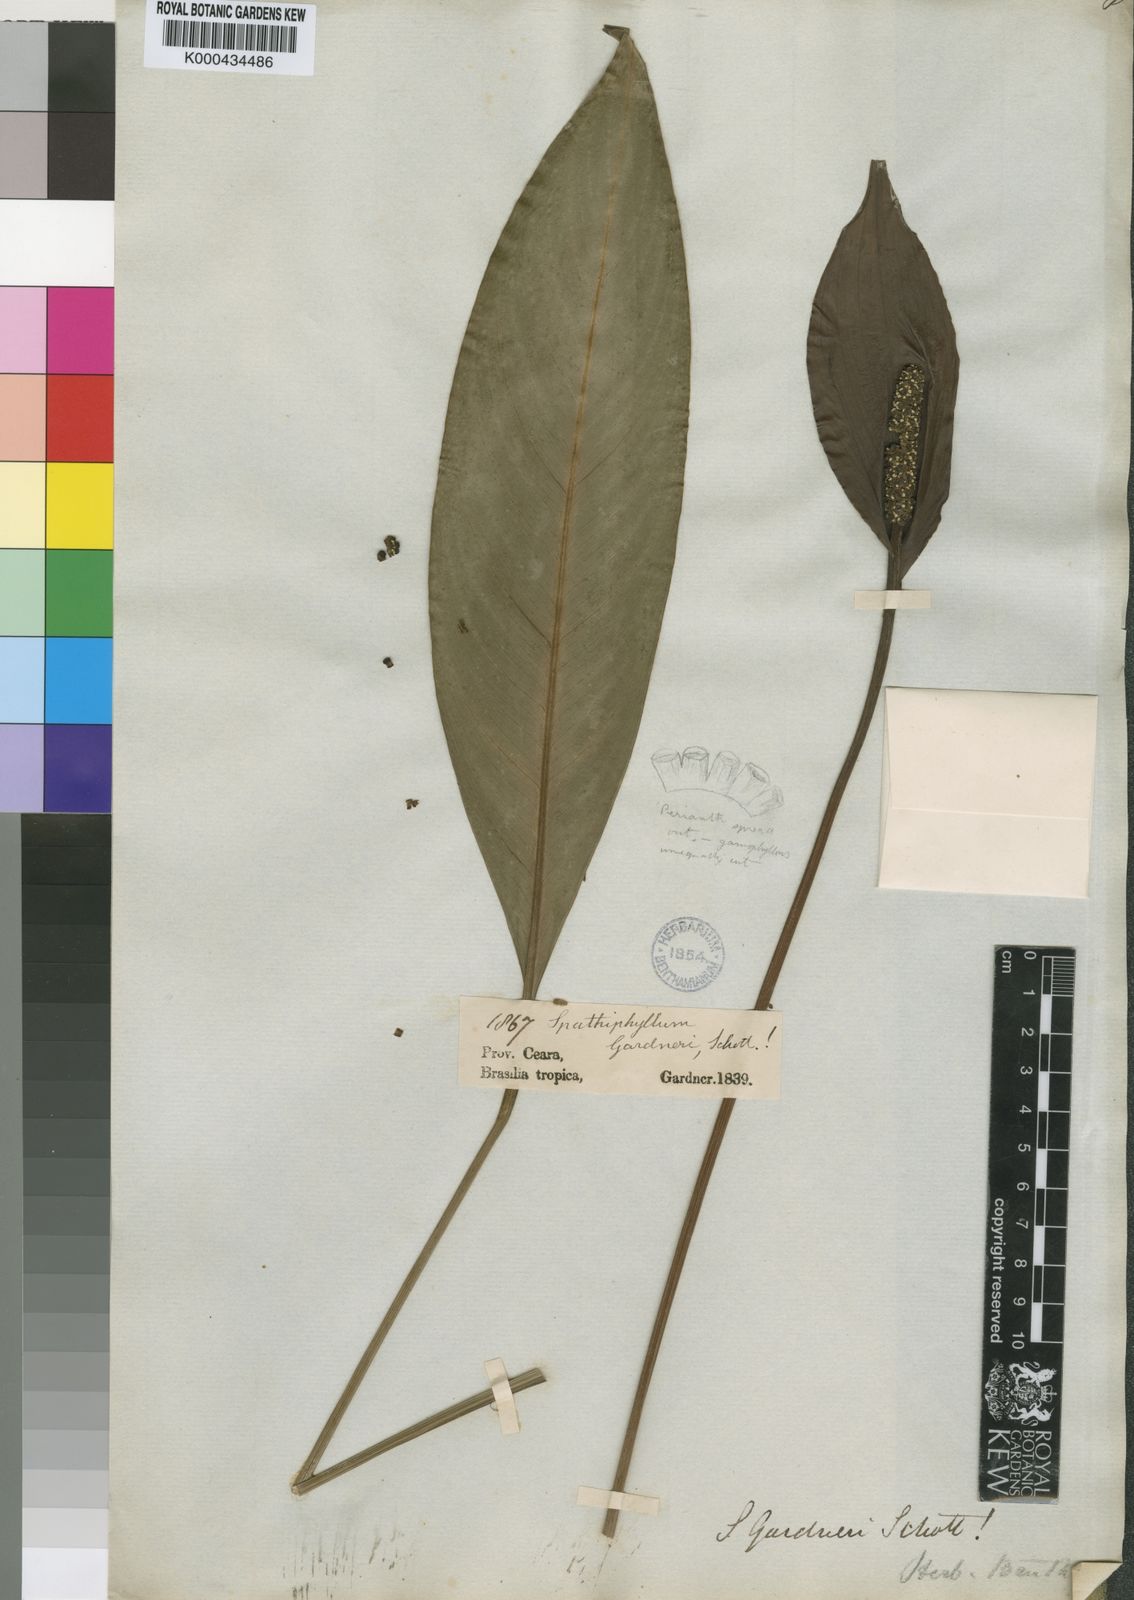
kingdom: Plantae
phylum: Tracheophyta
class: Liliopsida
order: Alismatales
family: Araceae
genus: Spathiphyllum
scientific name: Spathiphyllum gardneri
